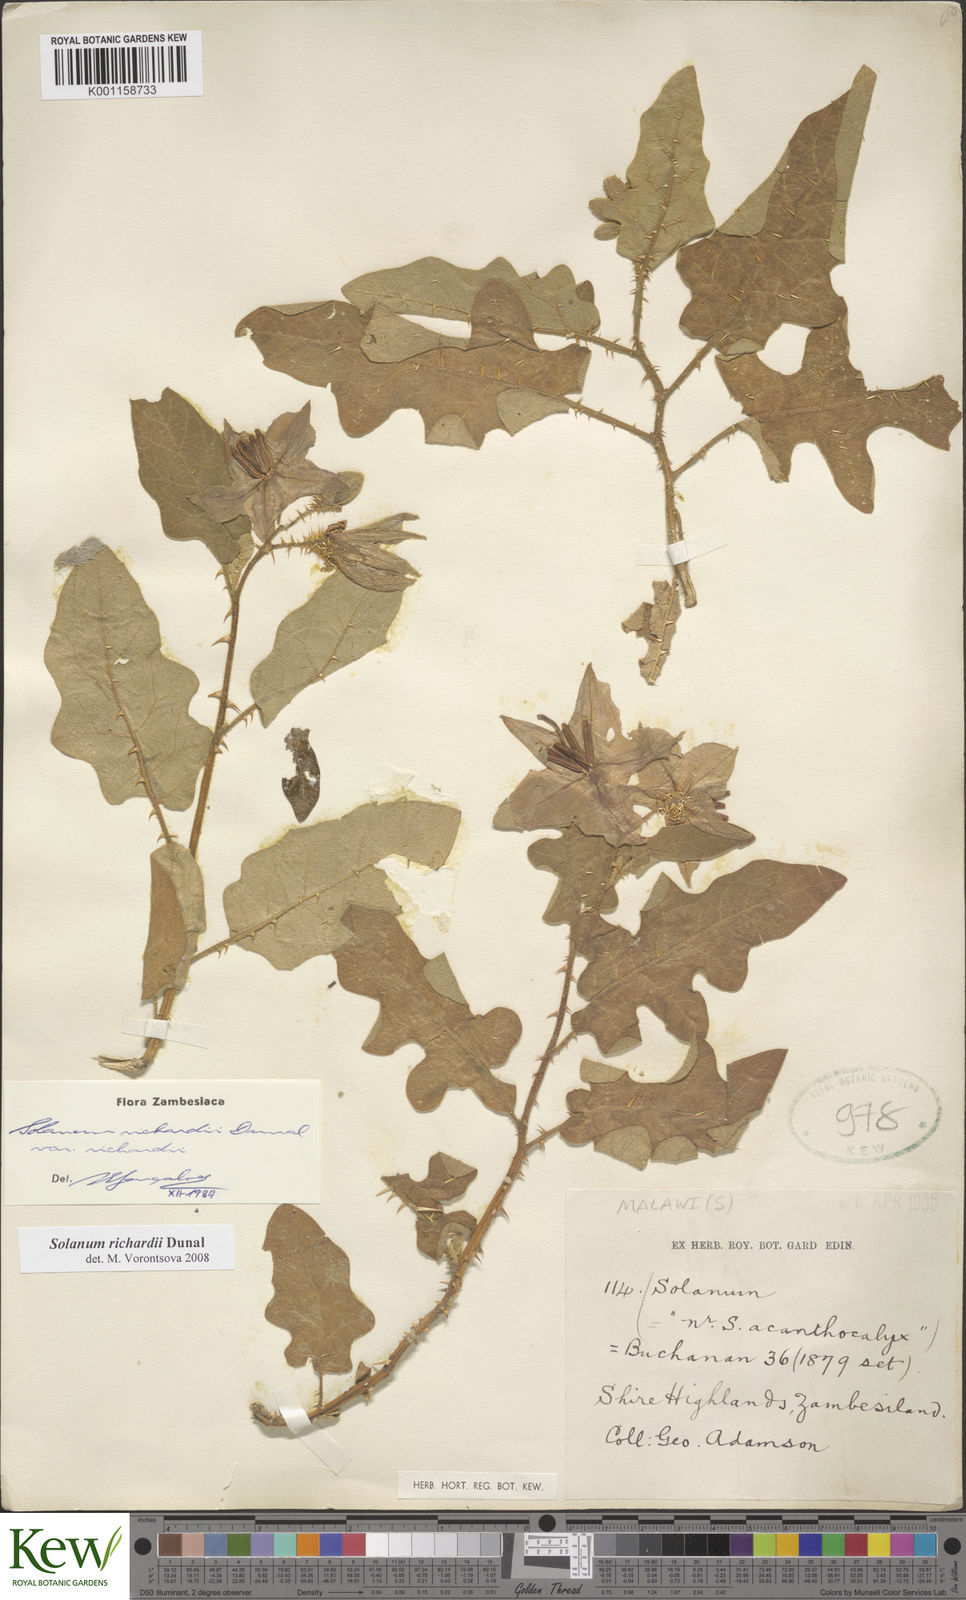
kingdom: Plantae
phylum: Tracheophyta
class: Magnoliopsida
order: Solanales
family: Solanaceae
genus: Solanum
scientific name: Solanum richardii
